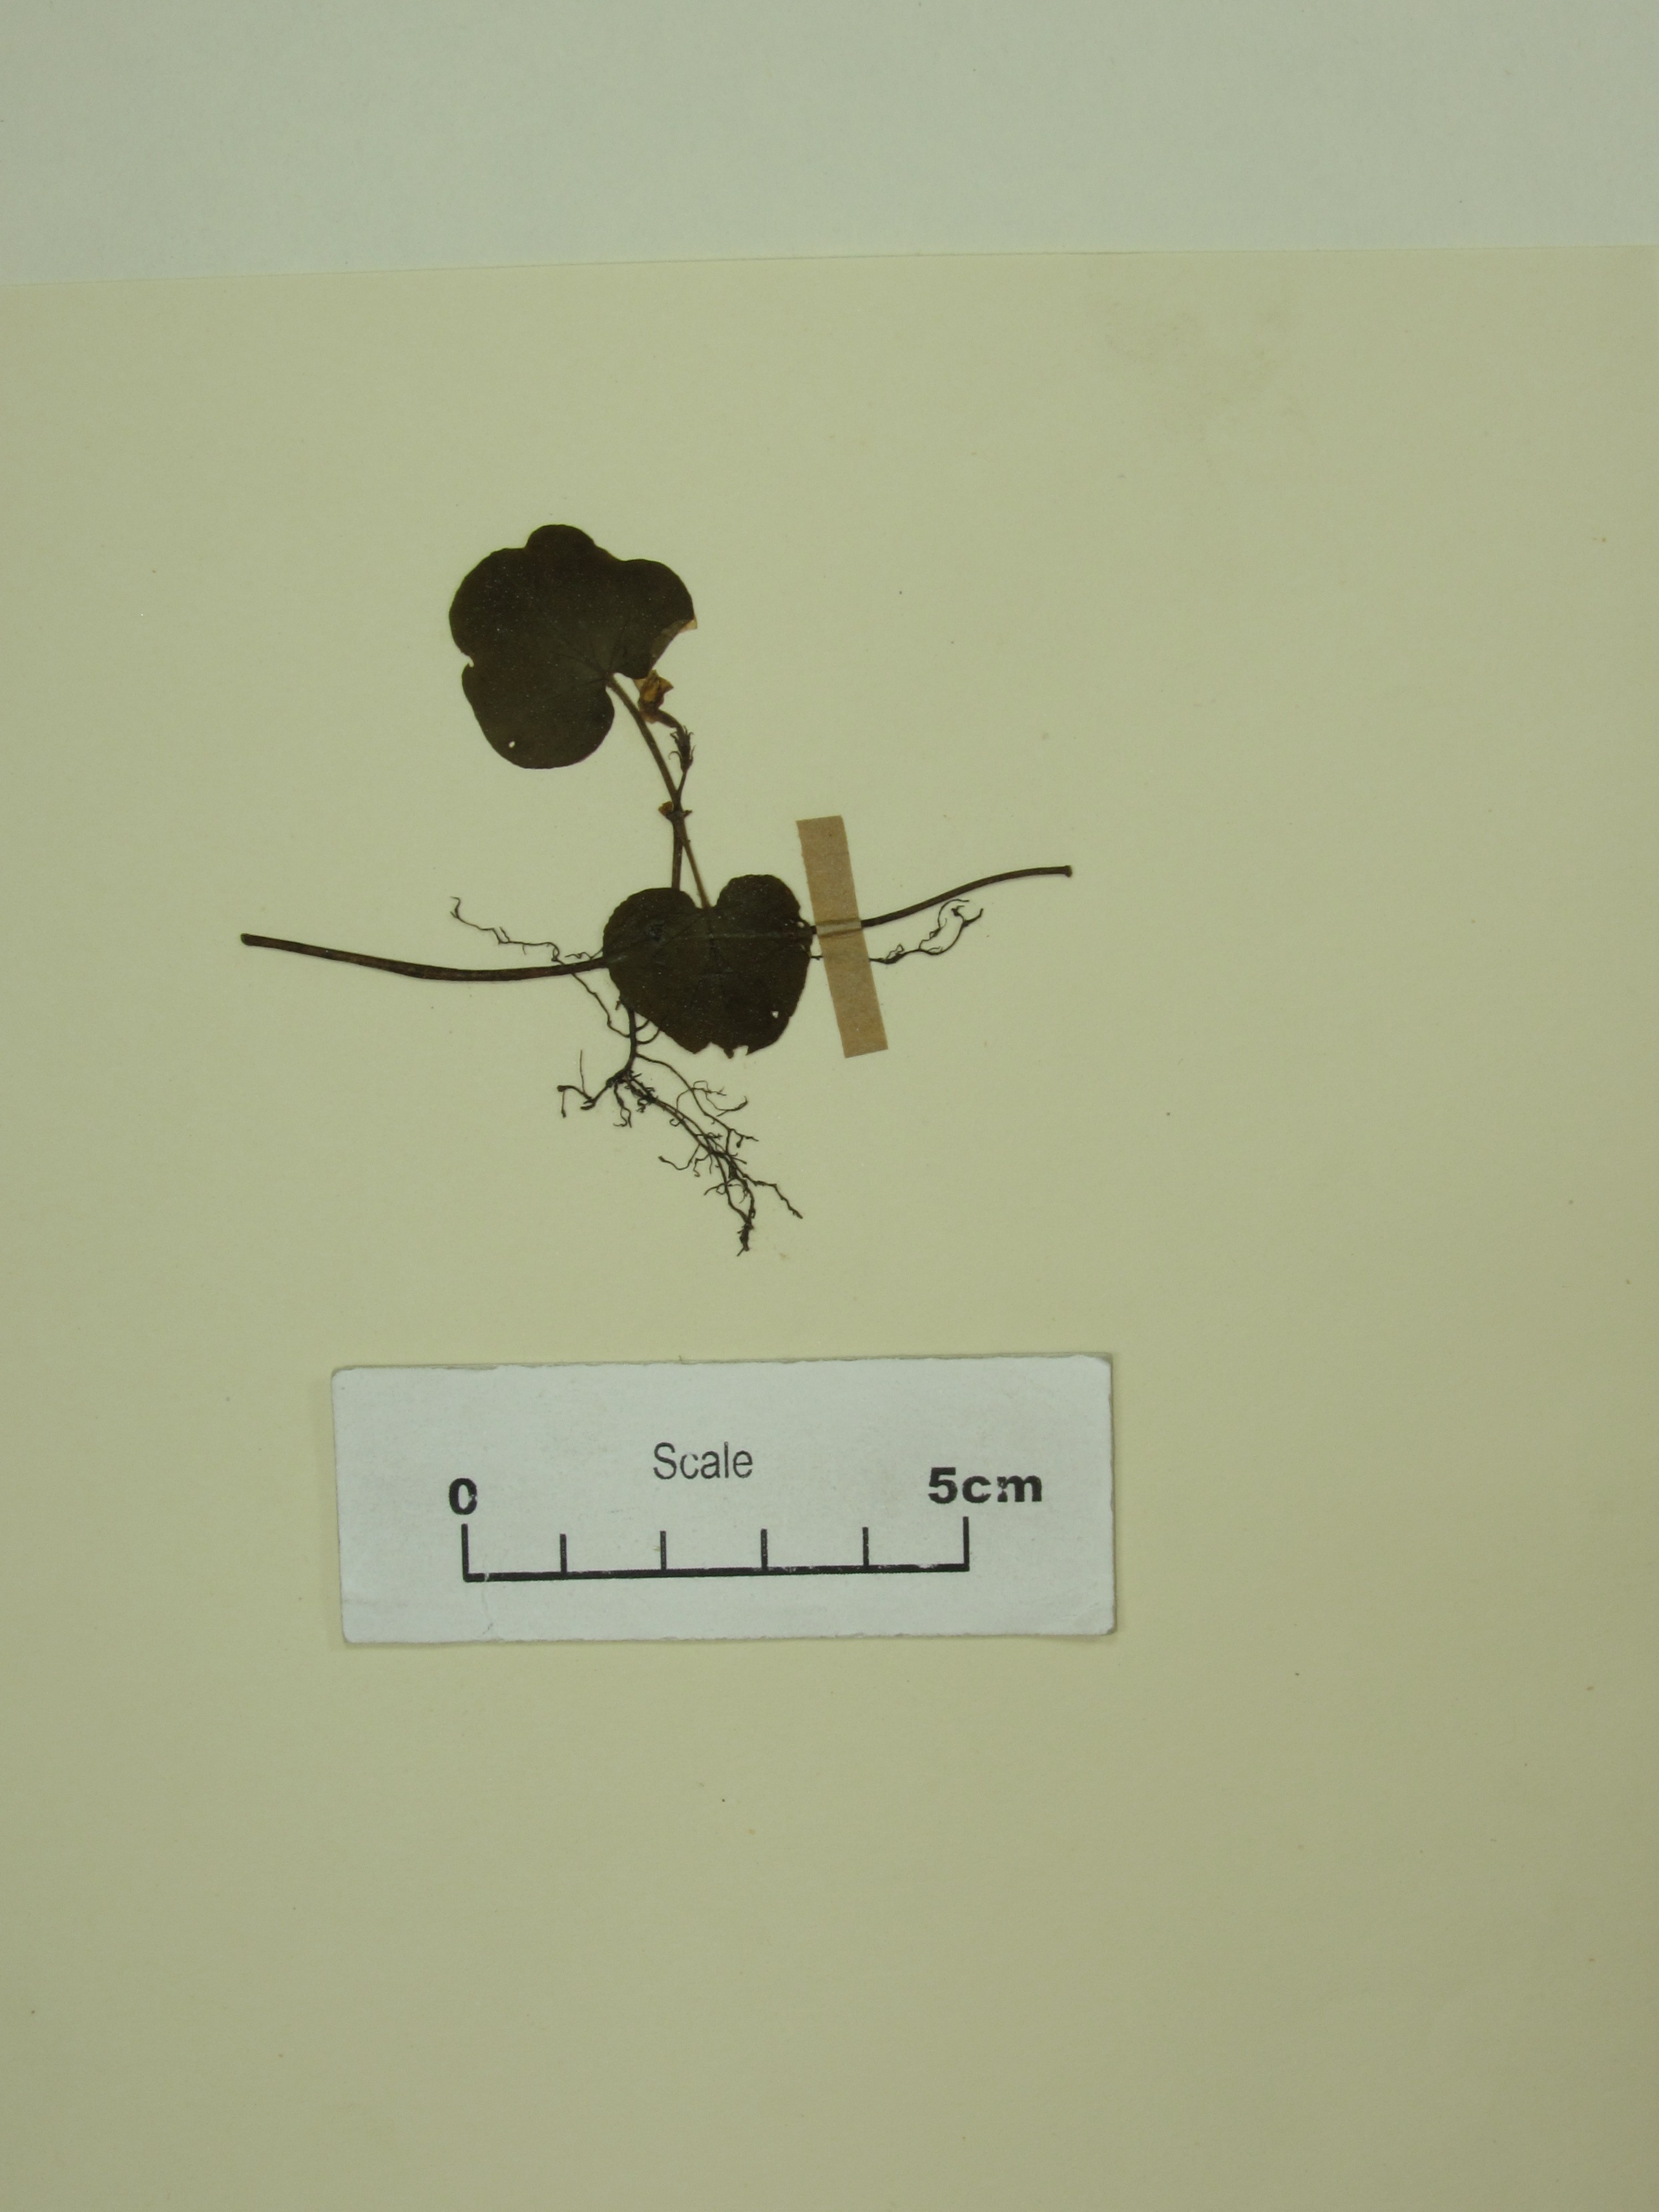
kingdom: Plantae
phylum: Tracheophyta
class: Magnoliopsida
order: Gentianales
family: Rubiaceae
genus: Geophila
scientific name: Geophila herbacea
